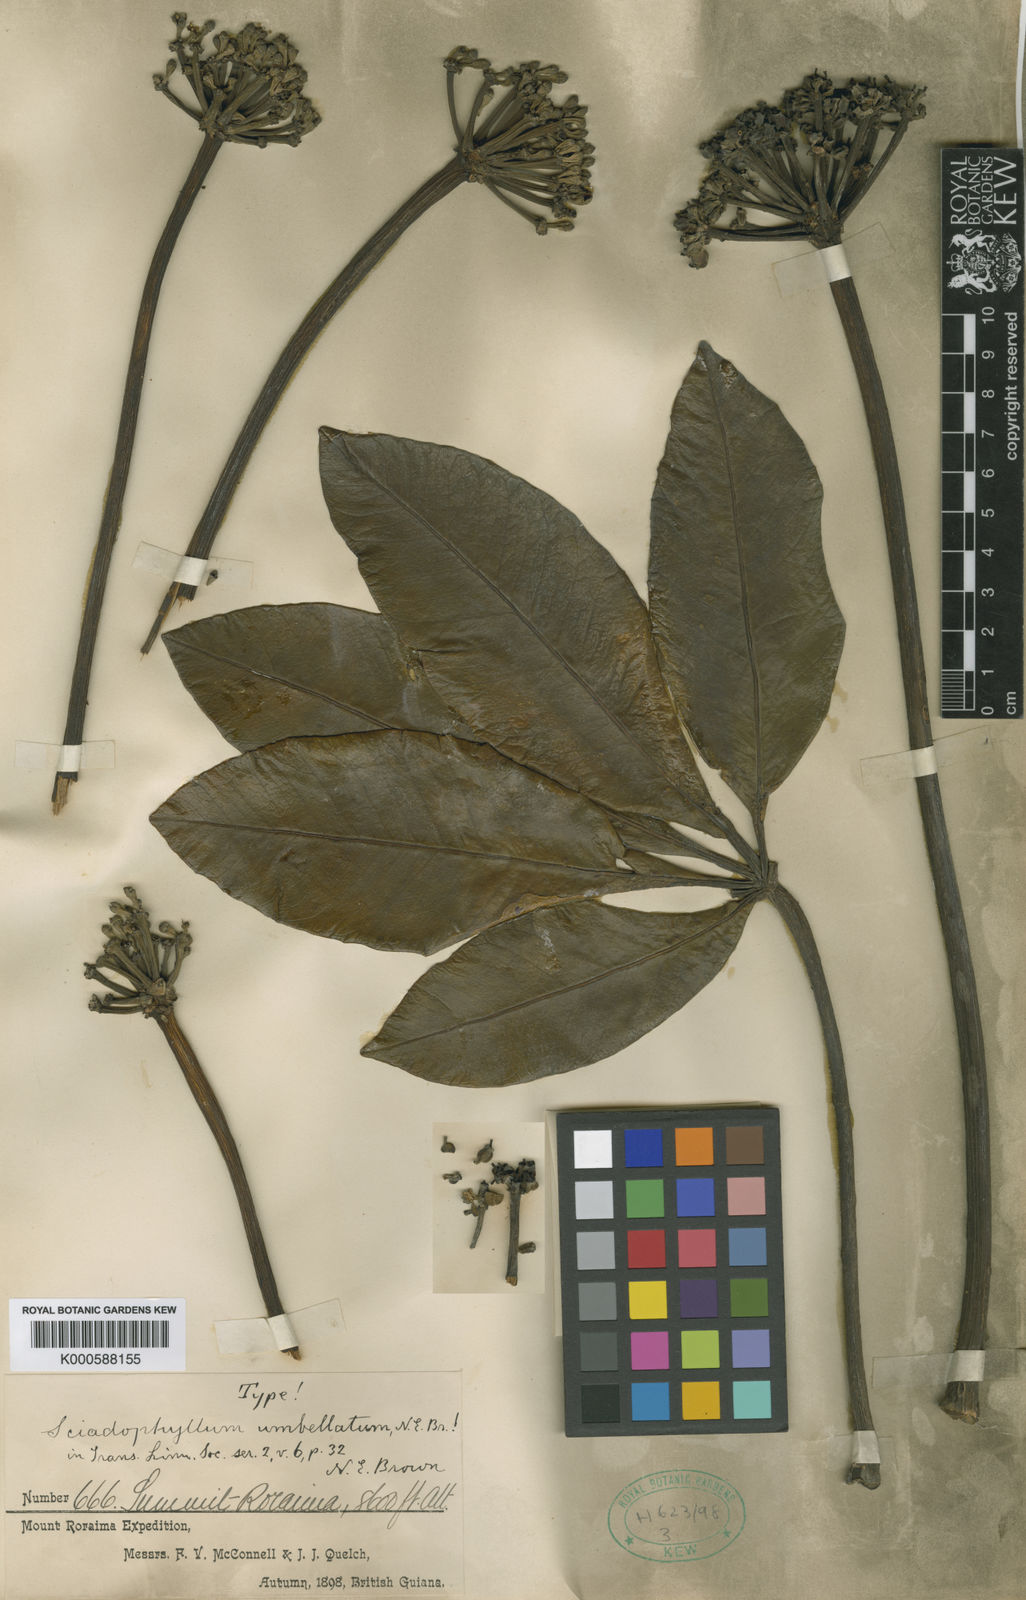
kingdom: Plantae
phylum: Tracheophyta
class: Magnoliopsida
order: Apiales
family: Araliaceae
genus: Crepinella
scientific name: Crepinella
